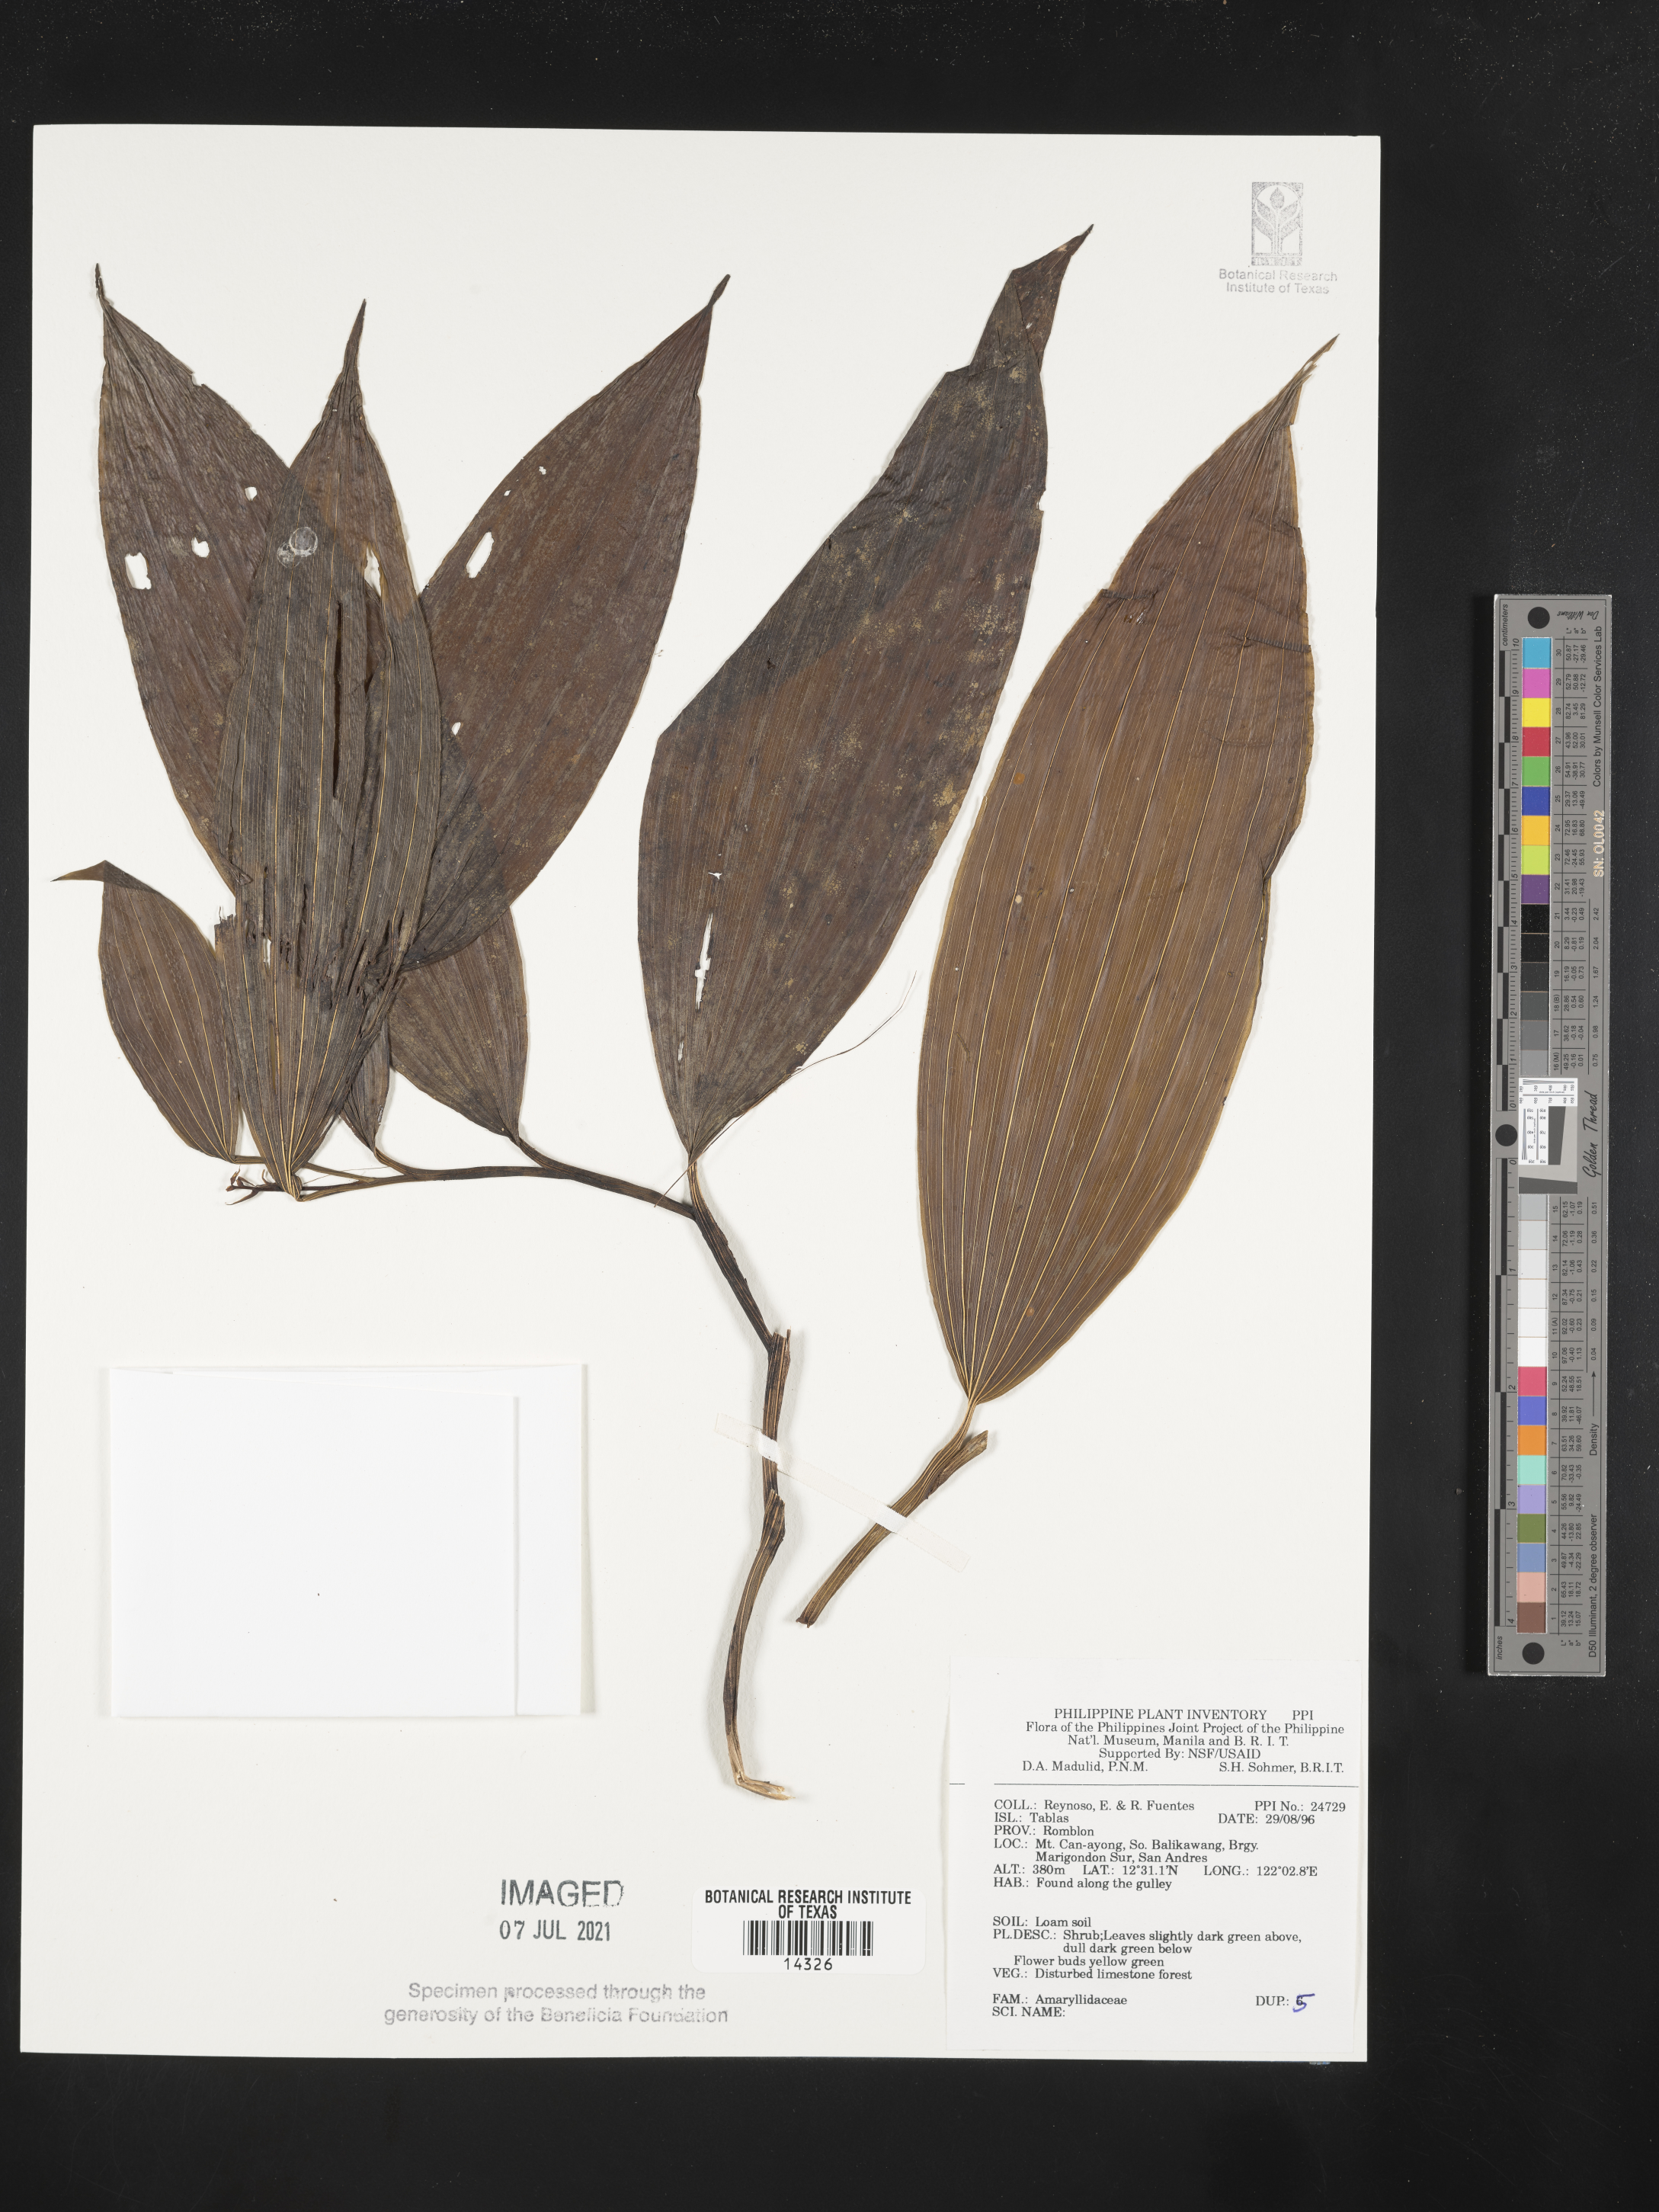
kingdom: Plantae
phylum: Tracheophyta
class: Liliopsida
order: Asparagales
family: Amaryllidaceae
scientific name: Amaryllidaceae
